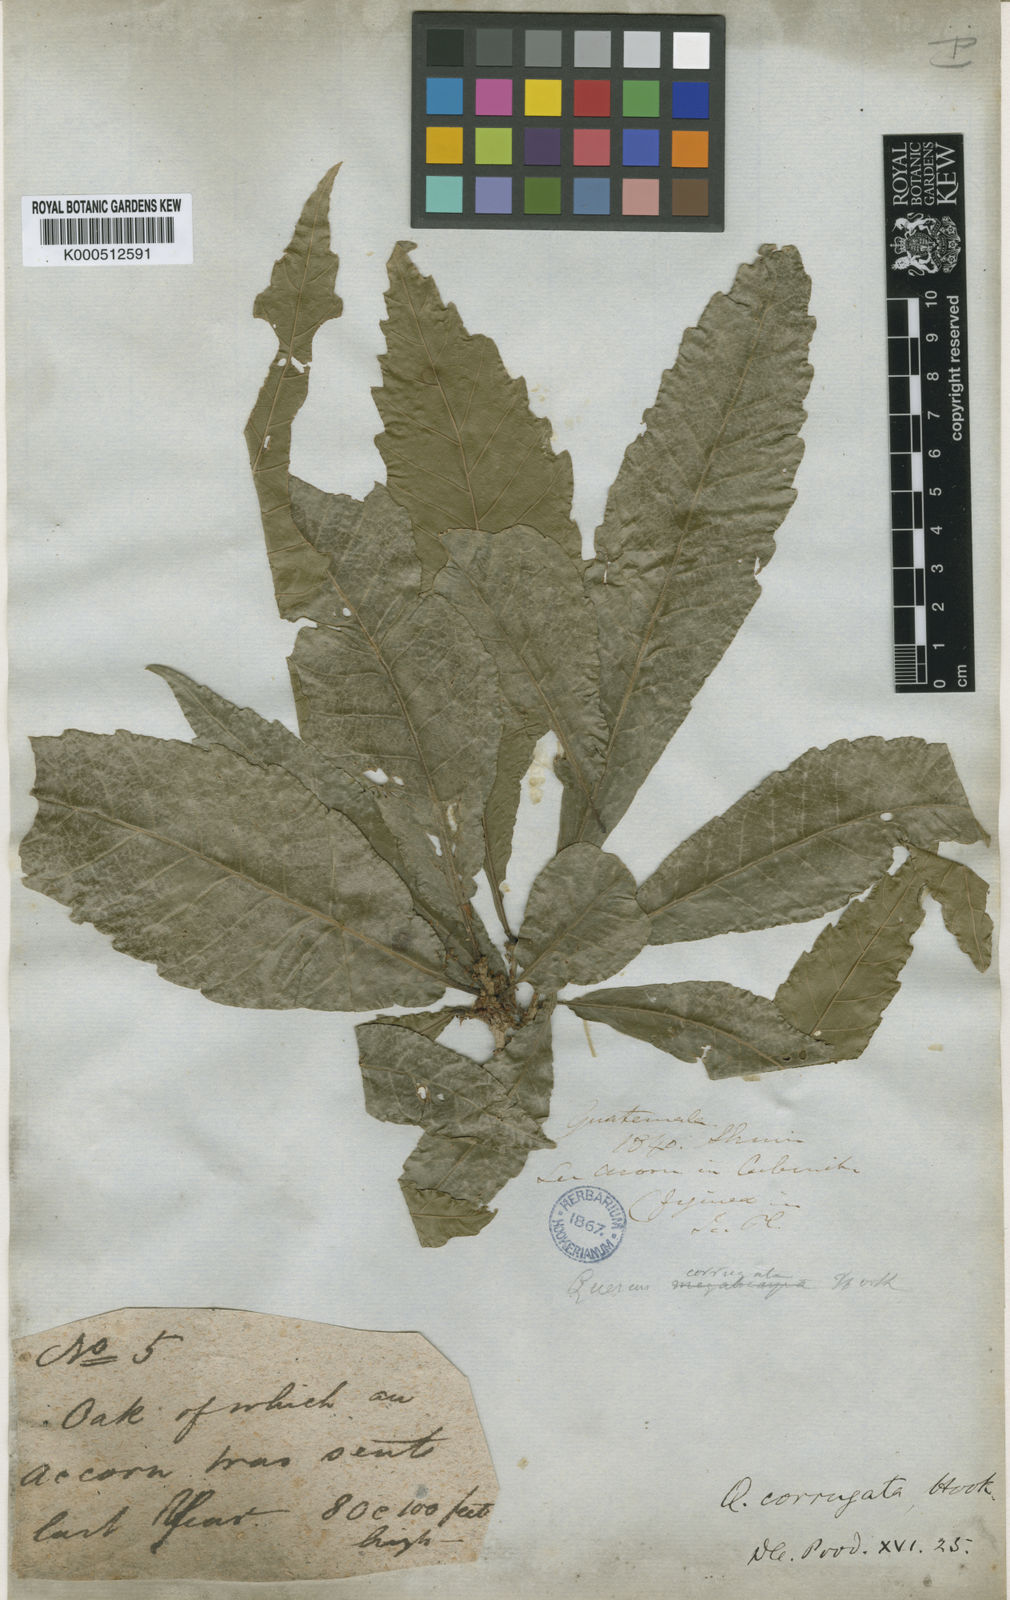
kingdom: Plantae
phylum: Tracheophyta
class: Magnoliopsida
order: Fagales
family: Fagaceae
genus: Quercus
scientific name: Quercus corrugata
